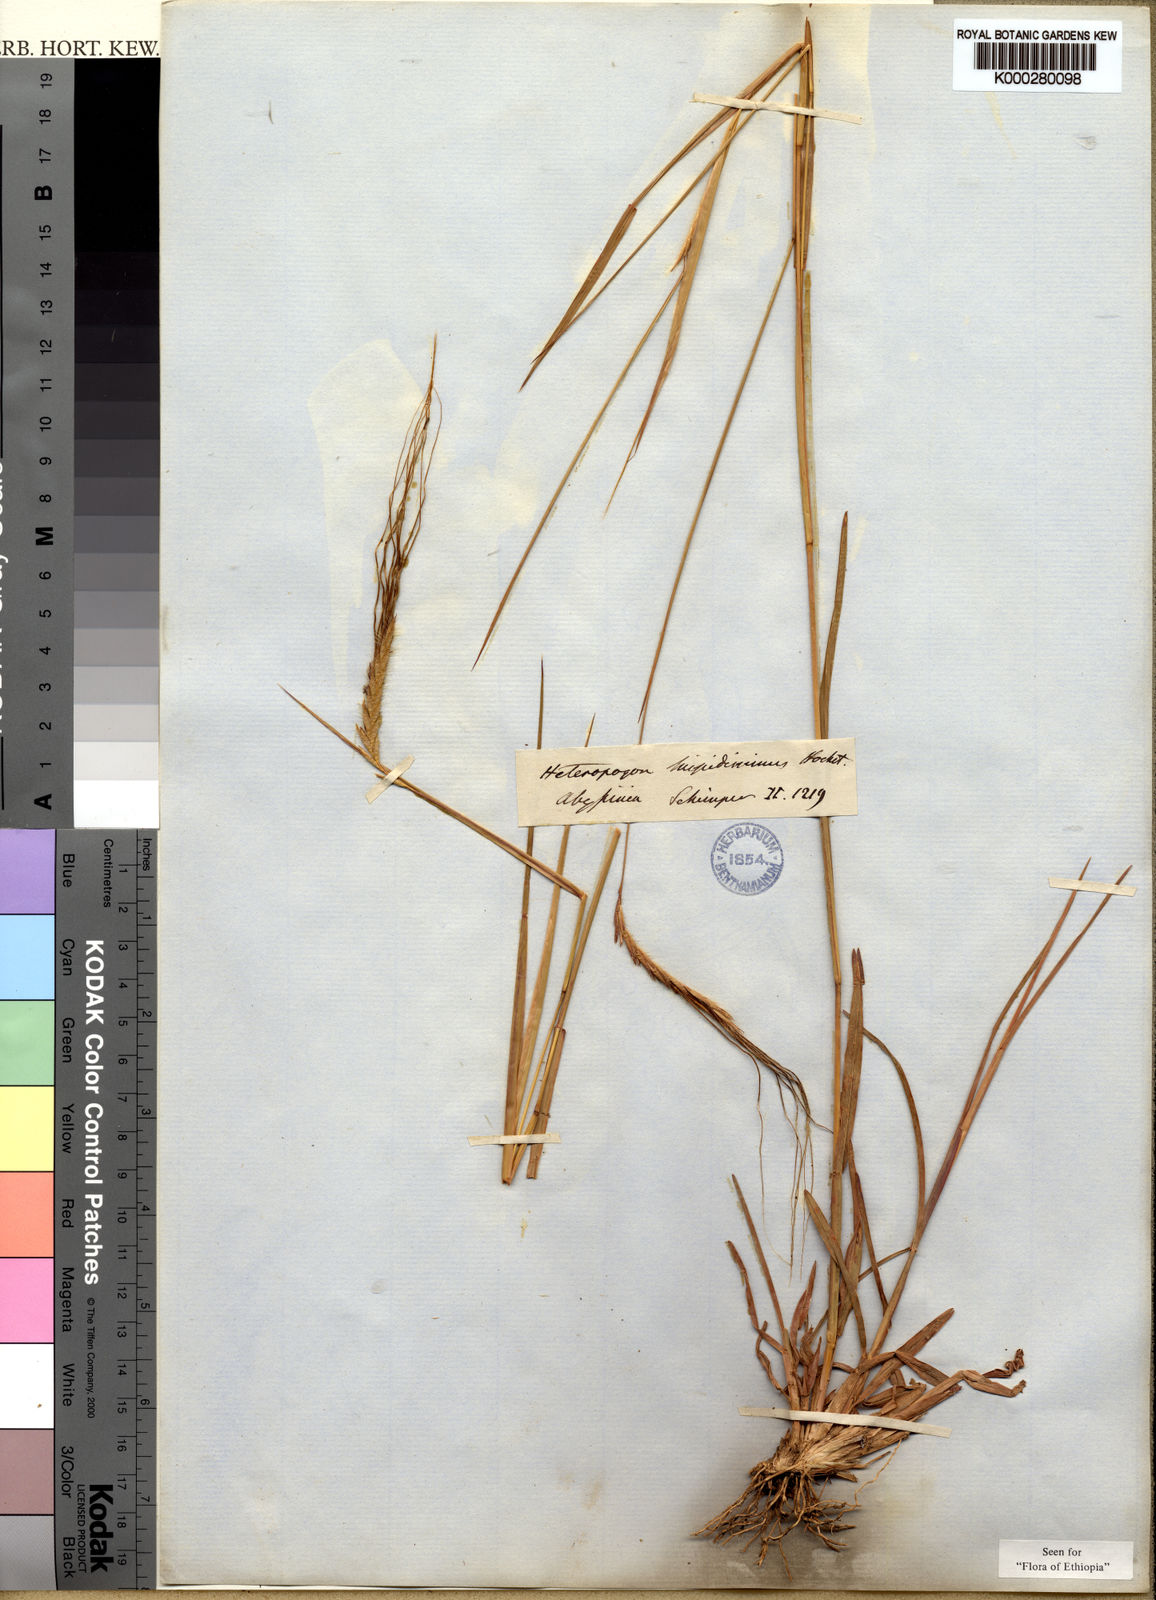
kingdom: Plantae
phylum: Tracheophyta
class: Liliopsida
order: Poales
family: Poaceae
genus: Heteropogon
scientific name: Heteropogon contortus
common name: Tanglehead
